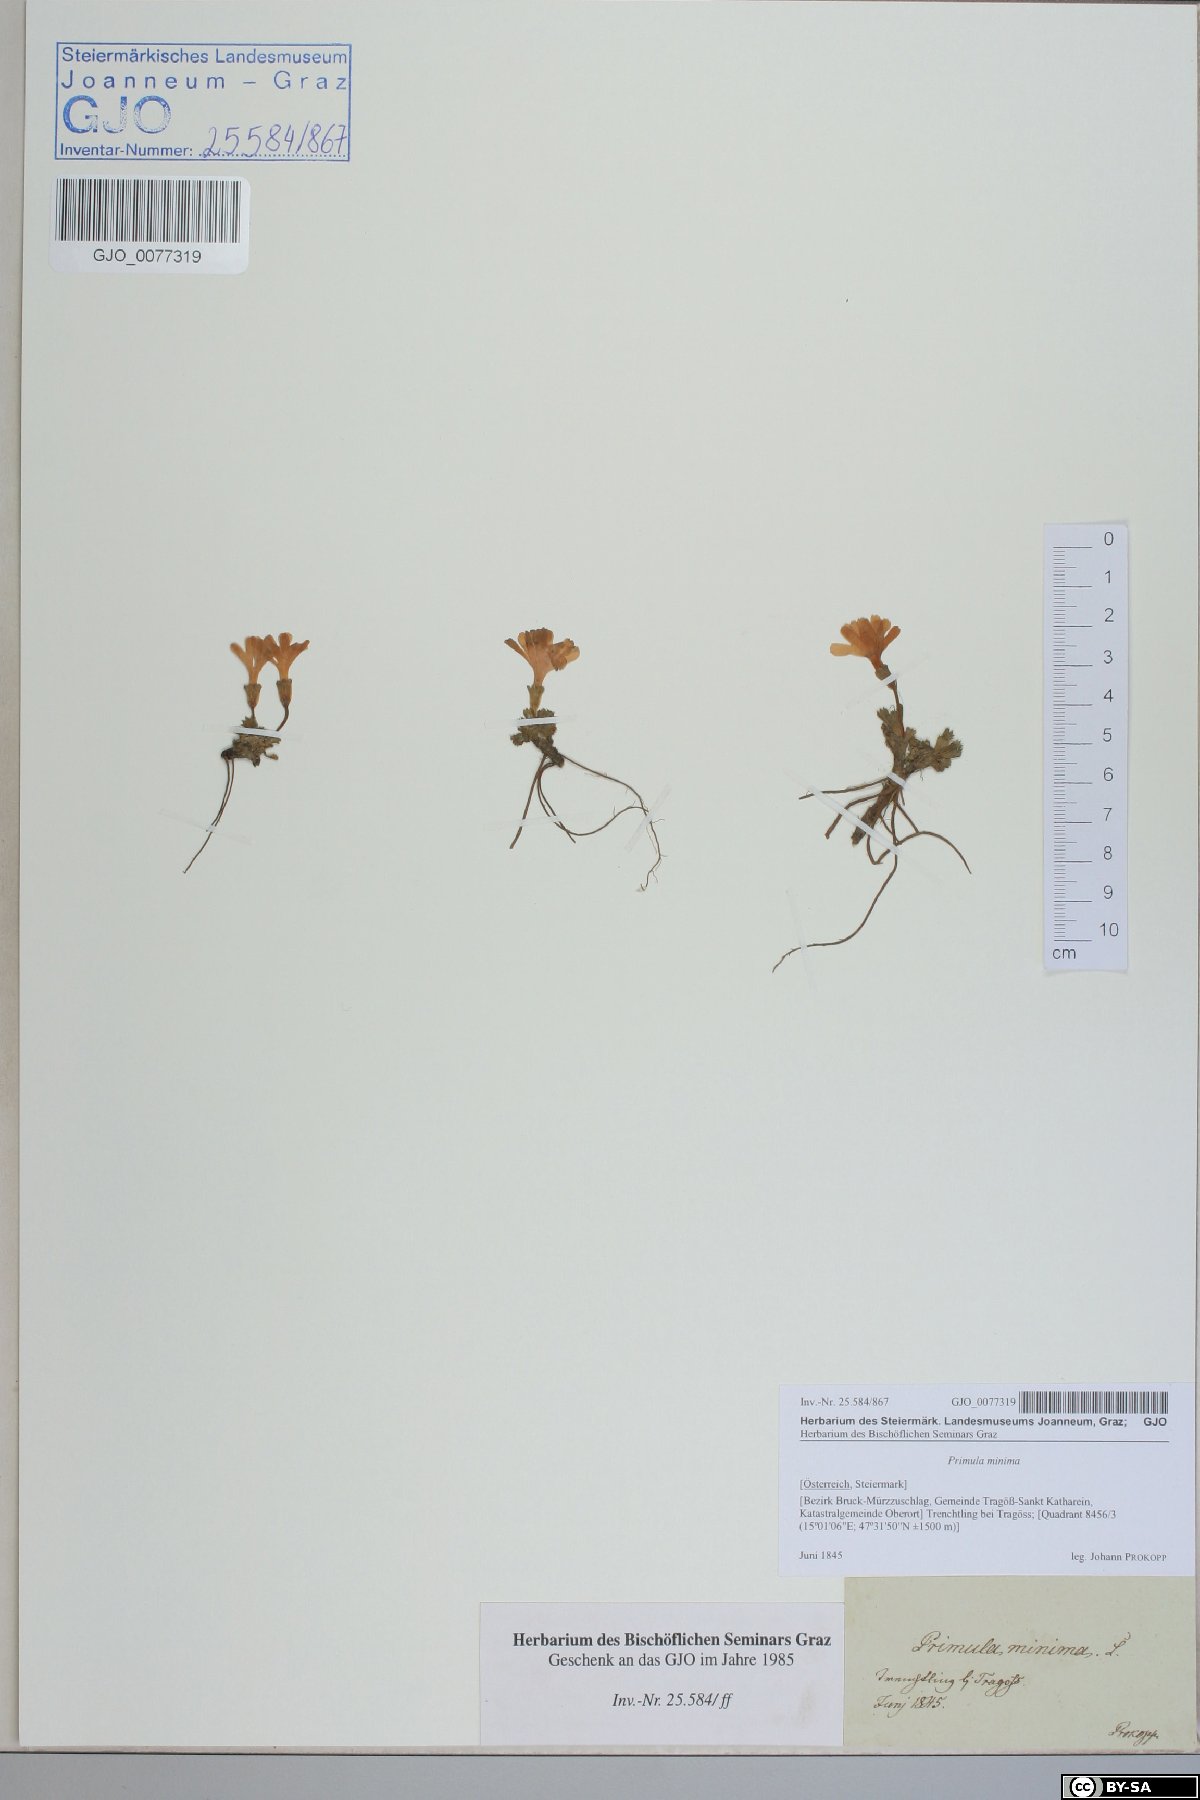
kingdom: Plantae
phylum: Tracheophyta
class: Magnoliopsida
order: Ericales
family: Primulaceae
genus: Primula
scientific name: Primula minima
